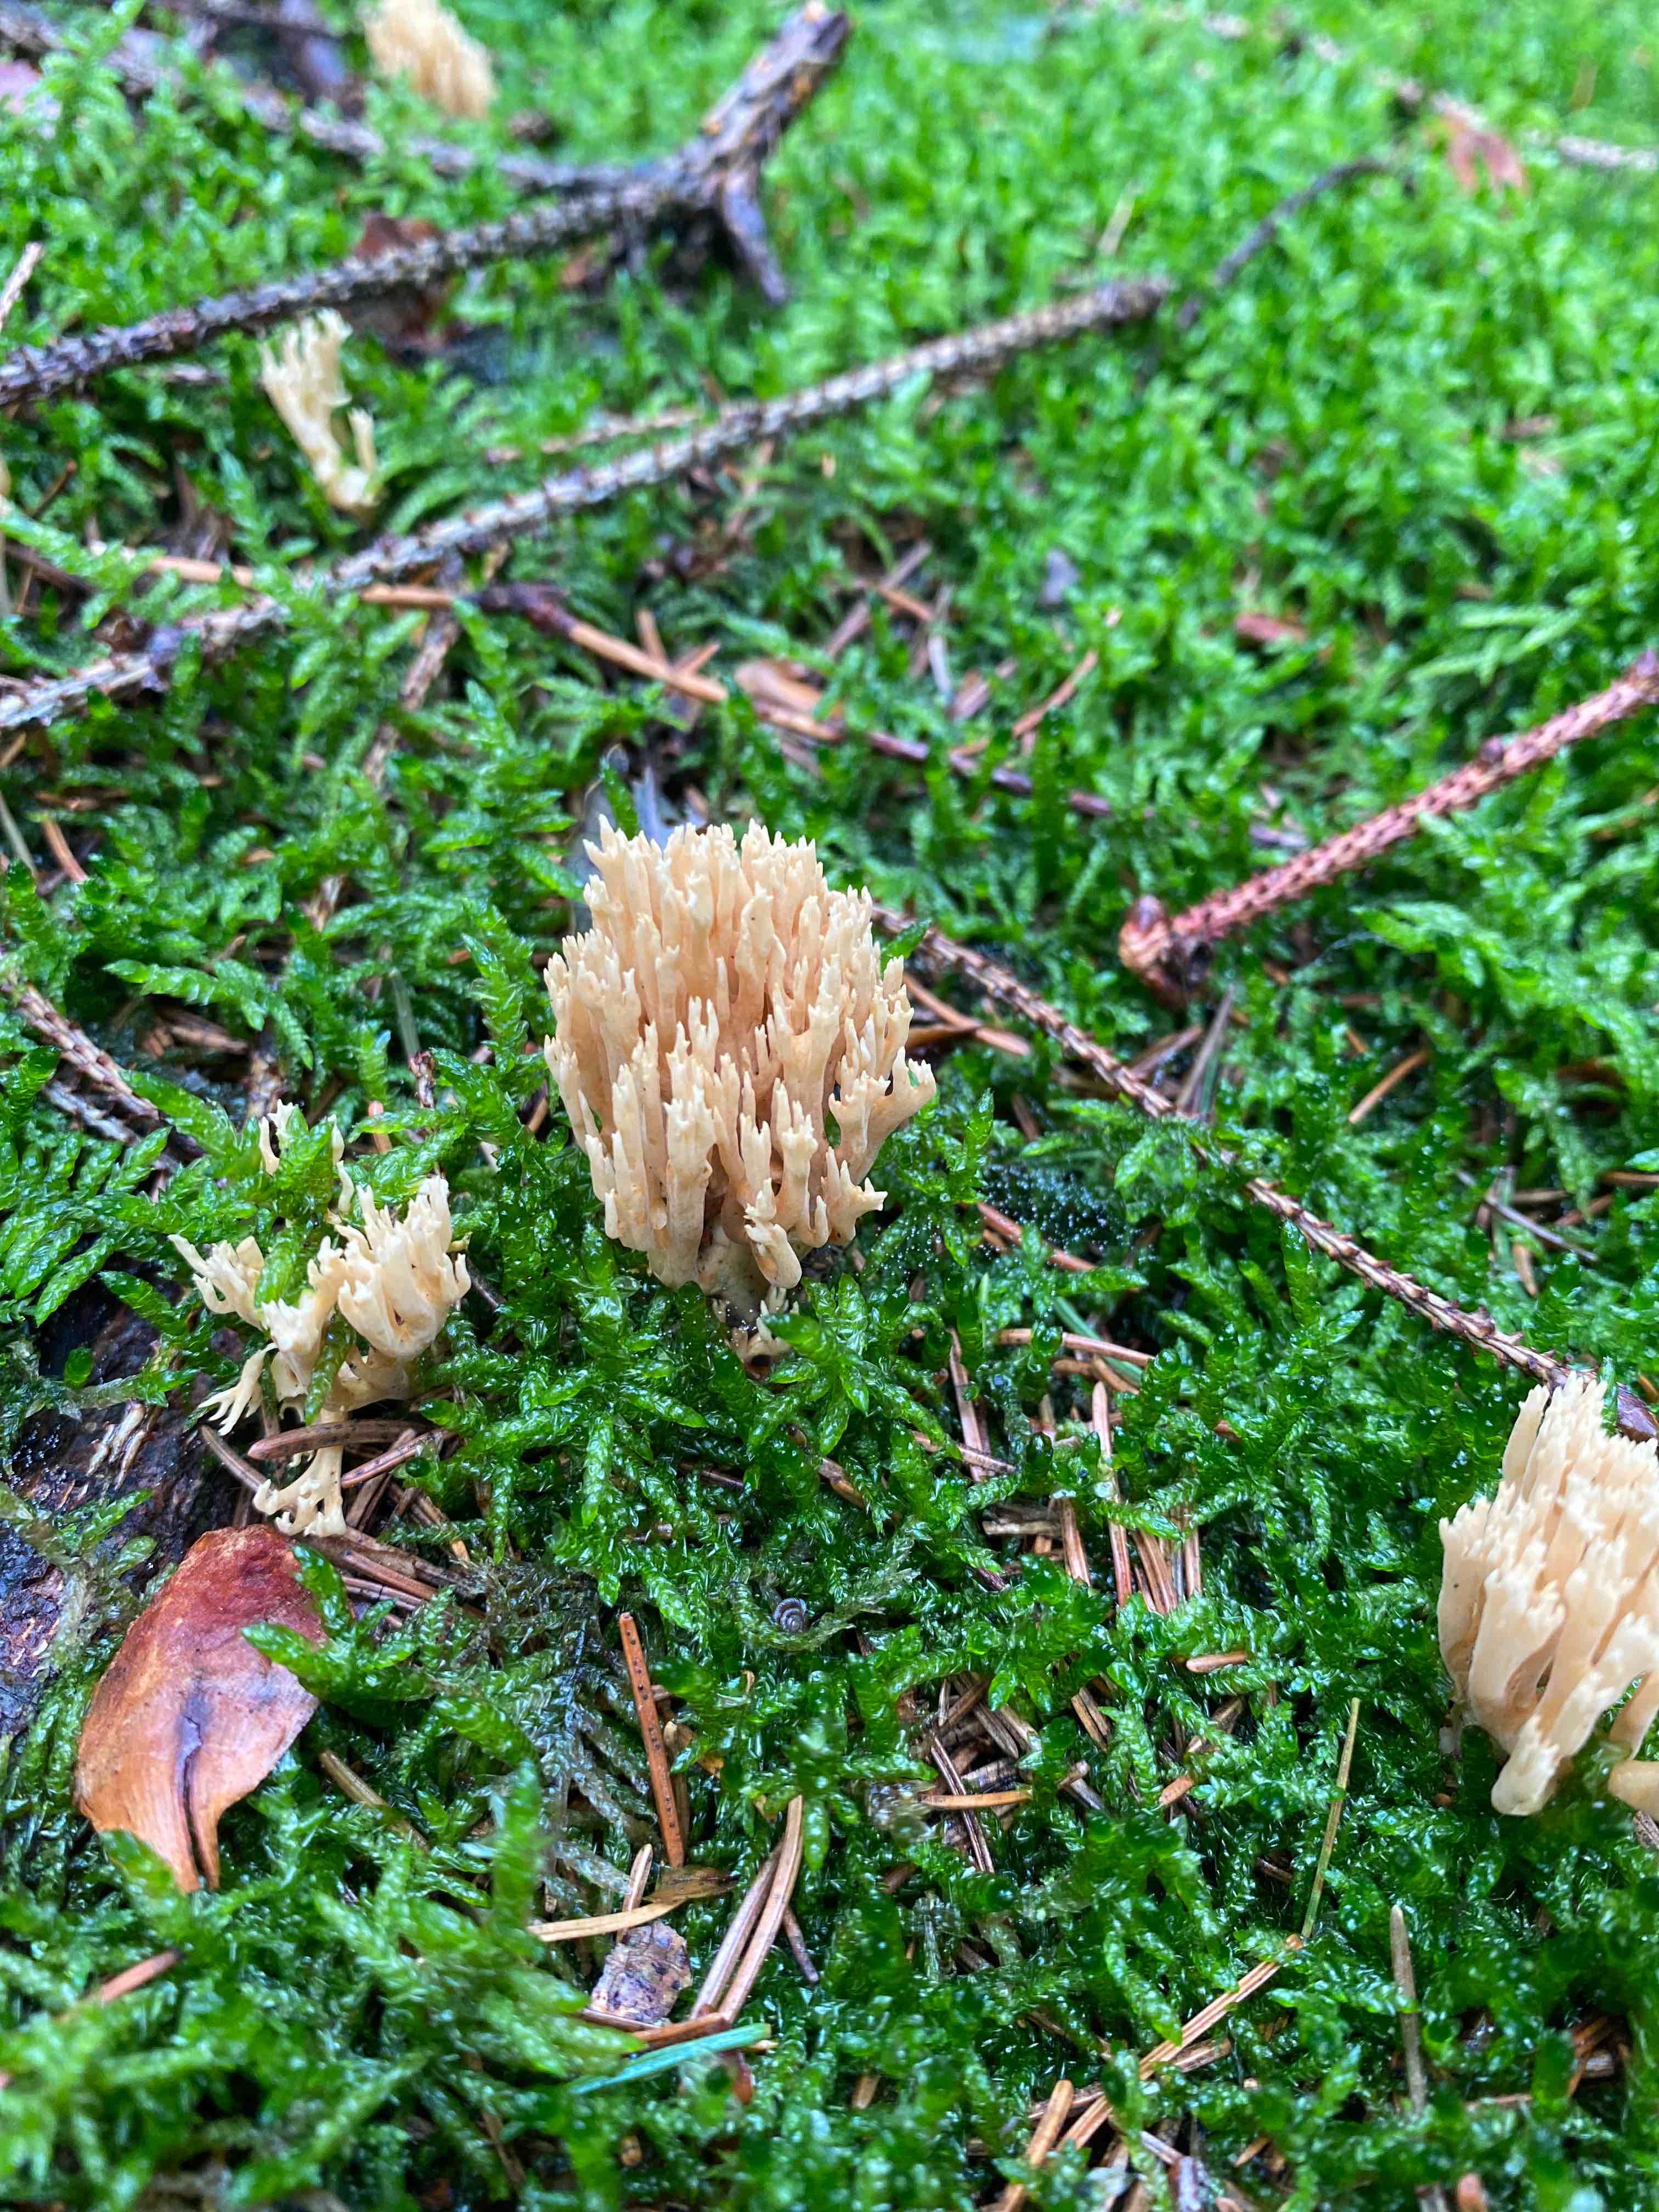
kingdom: Fungi
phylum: Basidiomycota
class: Agaricomycetes
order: Gomphales
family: Gomphaceae
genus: Phaeoclavulina
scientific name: Phaeoclavulina eumorpha
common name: gran-koralsvamp
